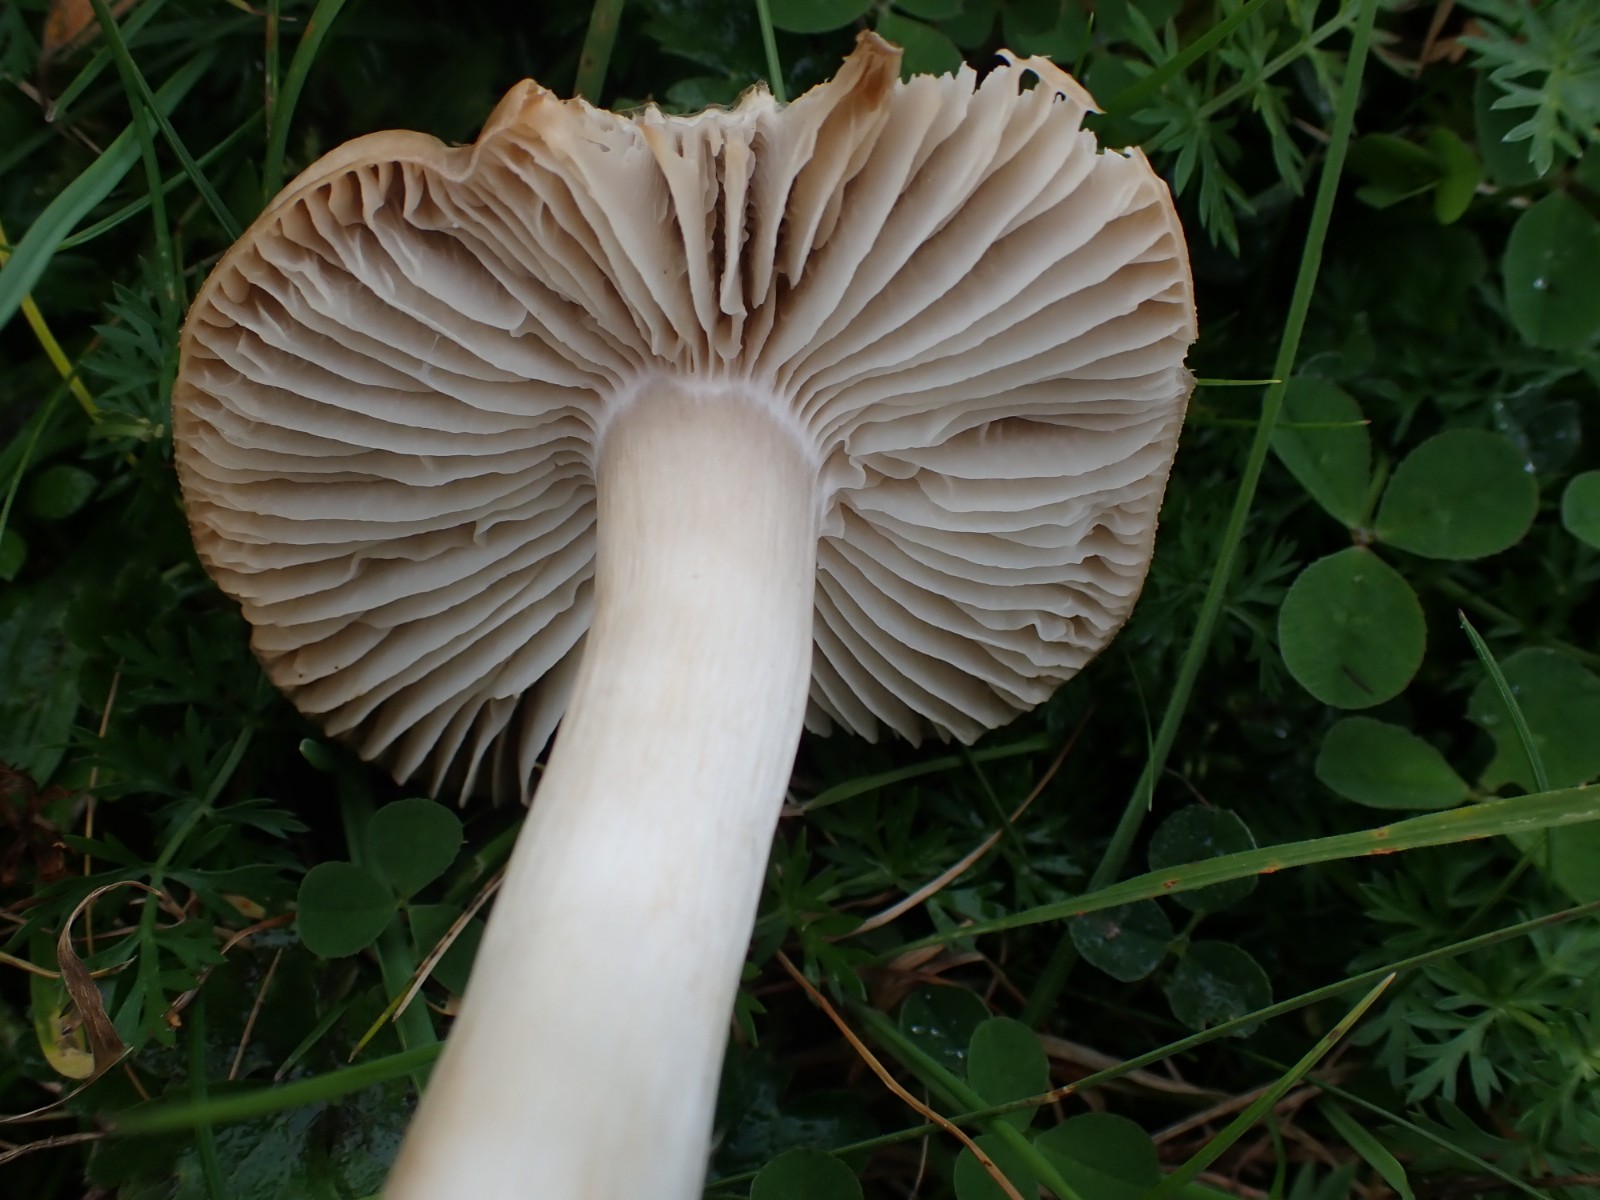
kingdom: Fungi
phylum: Basidiomycota
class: Agaricomycetes
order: Agaricales
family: Hygrophoraceae
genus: Neohygrocybe
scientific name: Neohygrocybe nitrata
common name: stinkende vokshat
